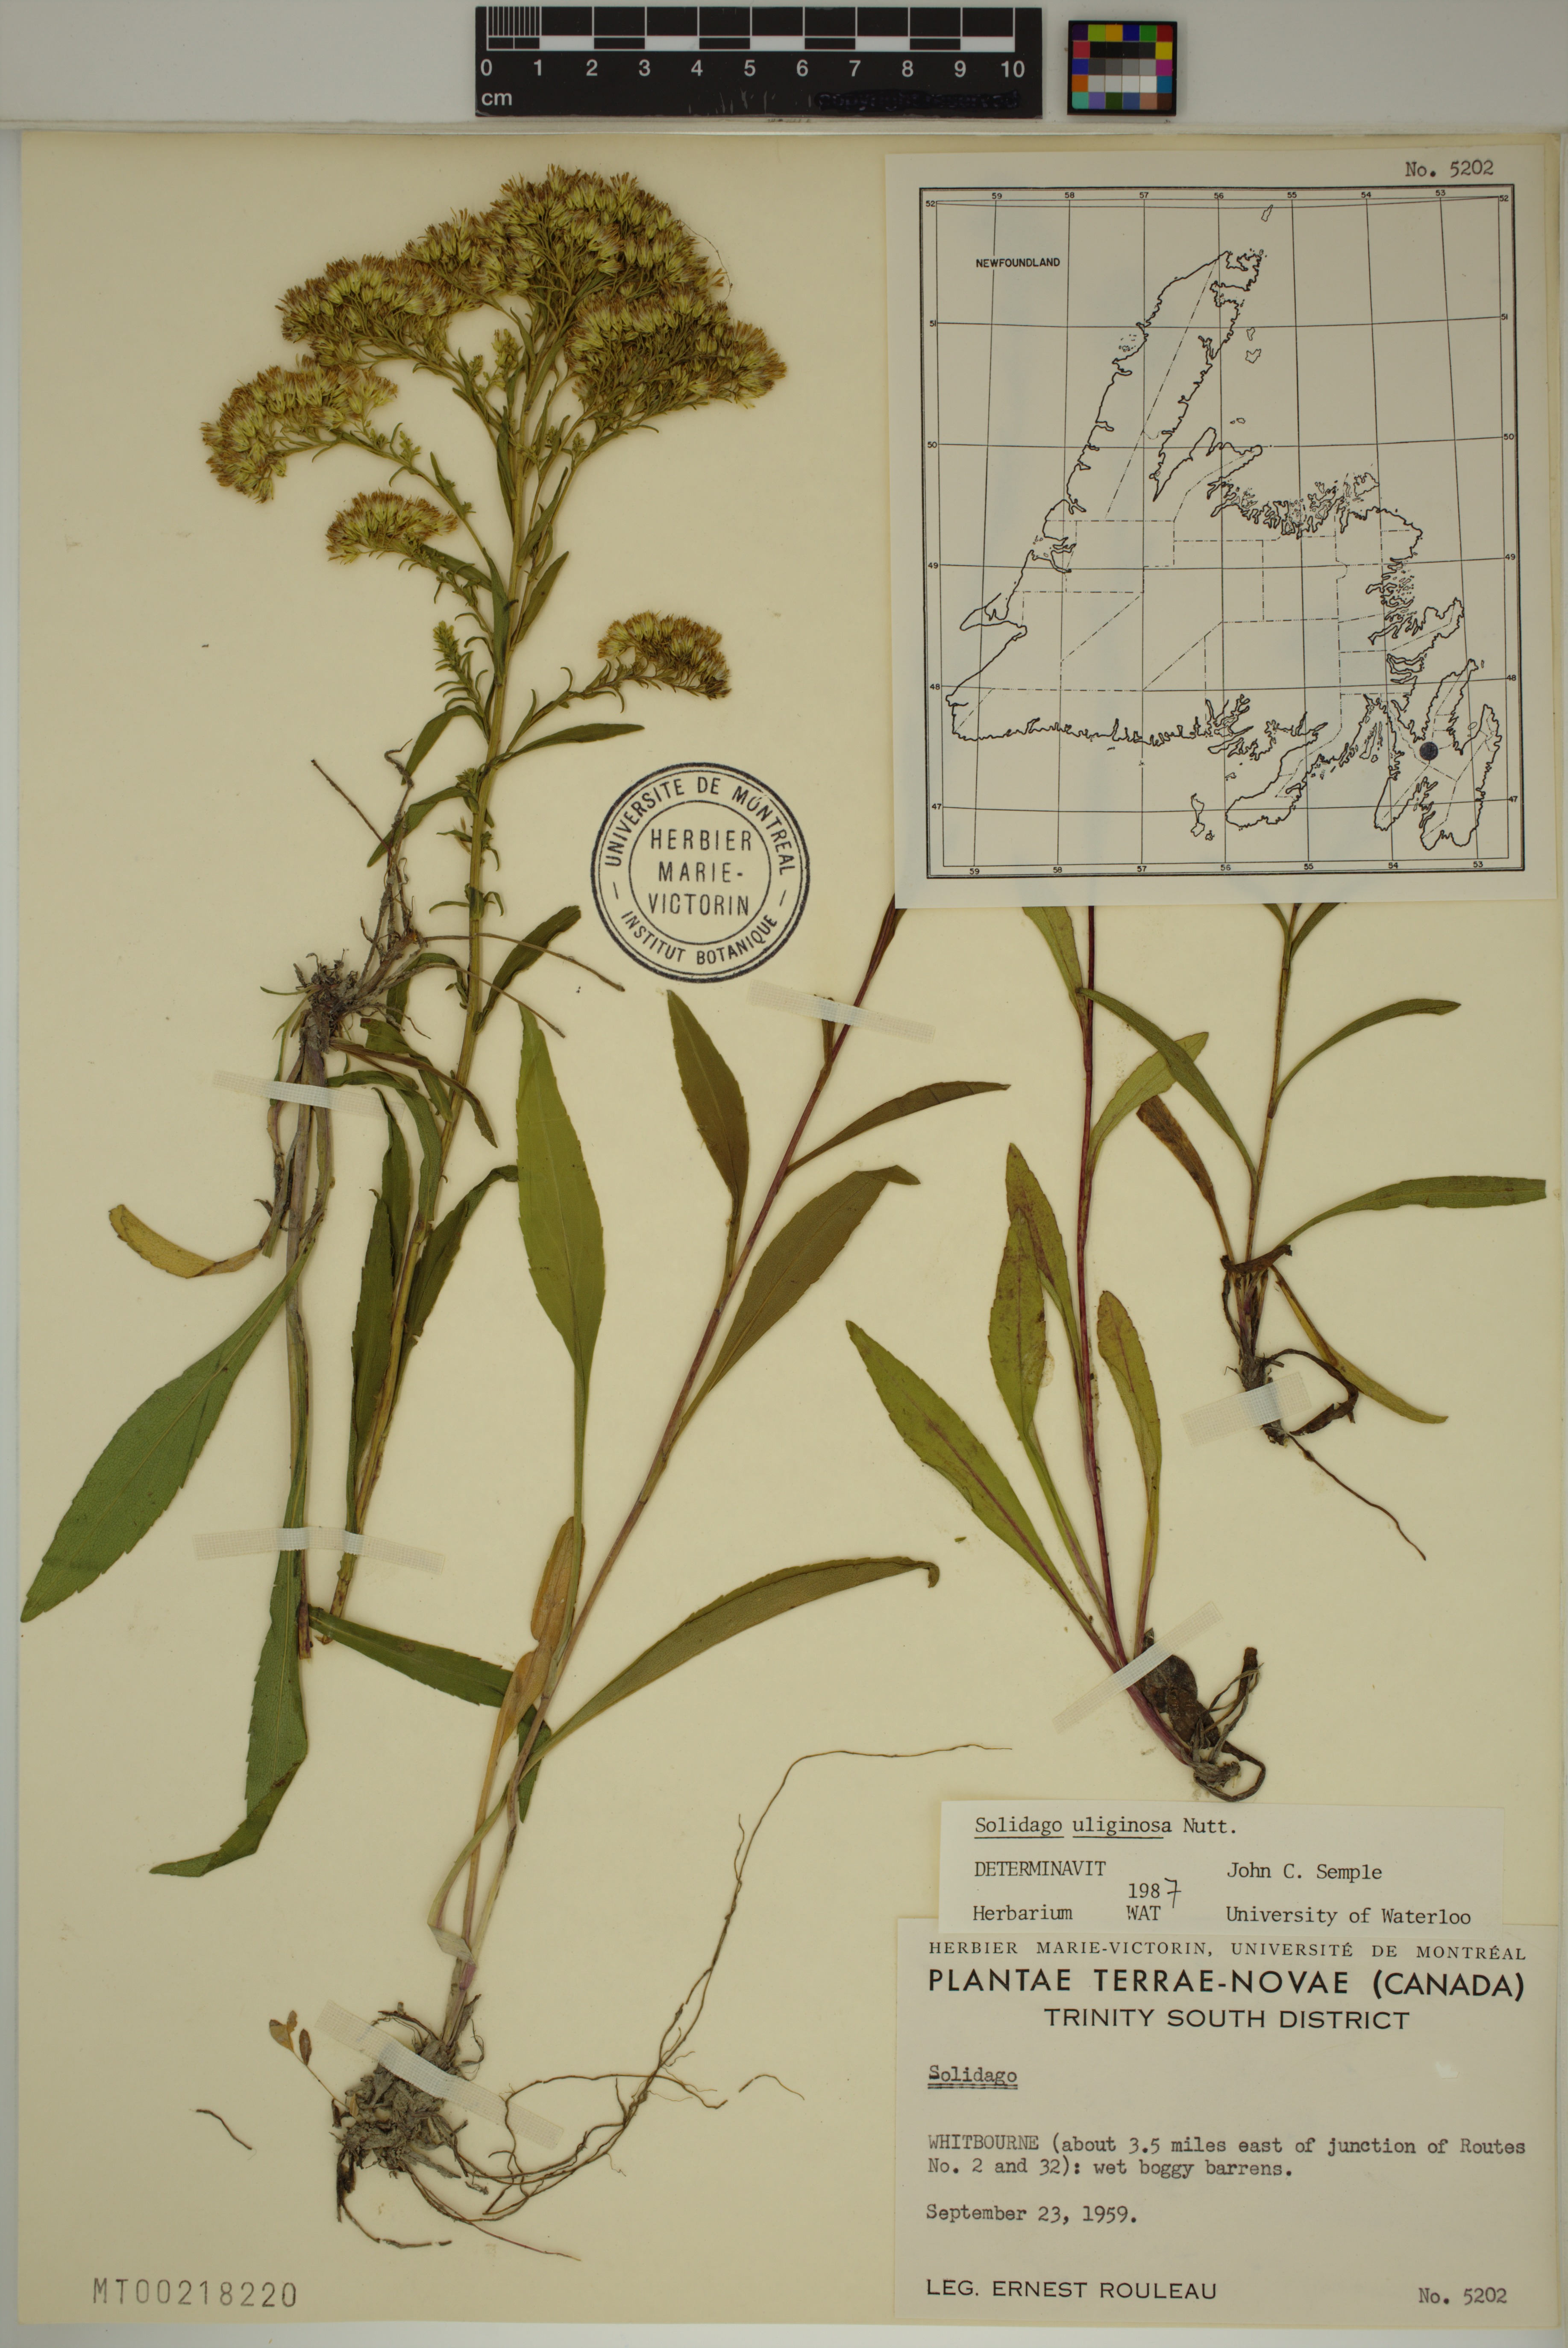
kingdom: Plantae
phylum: Tracheophyta
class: Magnoliopsida
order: Asterales
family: Asteraceae
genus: Solidago
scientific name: Solidago uliginosa
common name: Bog goldenrod
